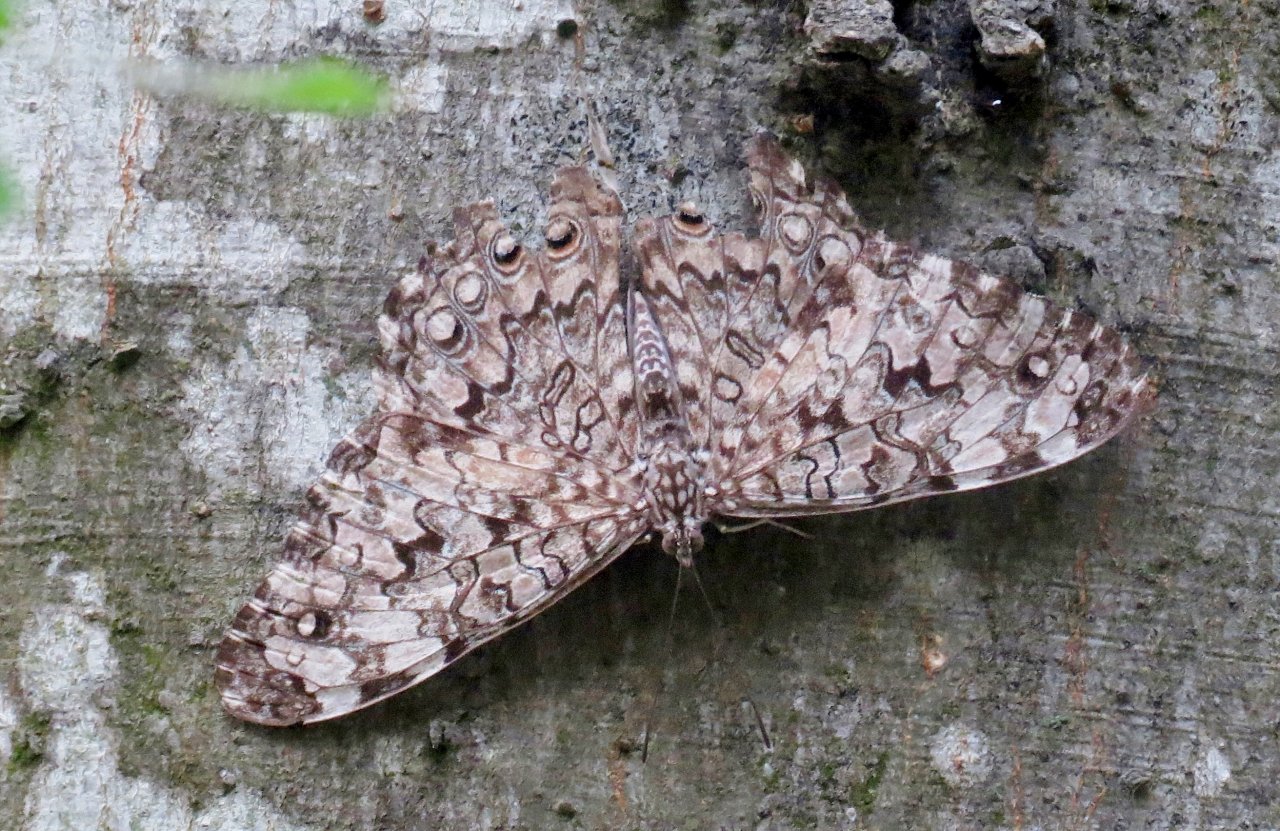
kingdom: Animalia
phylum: Arthropoda
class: Insecta
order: Lepidoptera
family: Nymphalidae
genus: Hamadryas
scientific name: Hamadryas februa
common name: Gray Cracker
